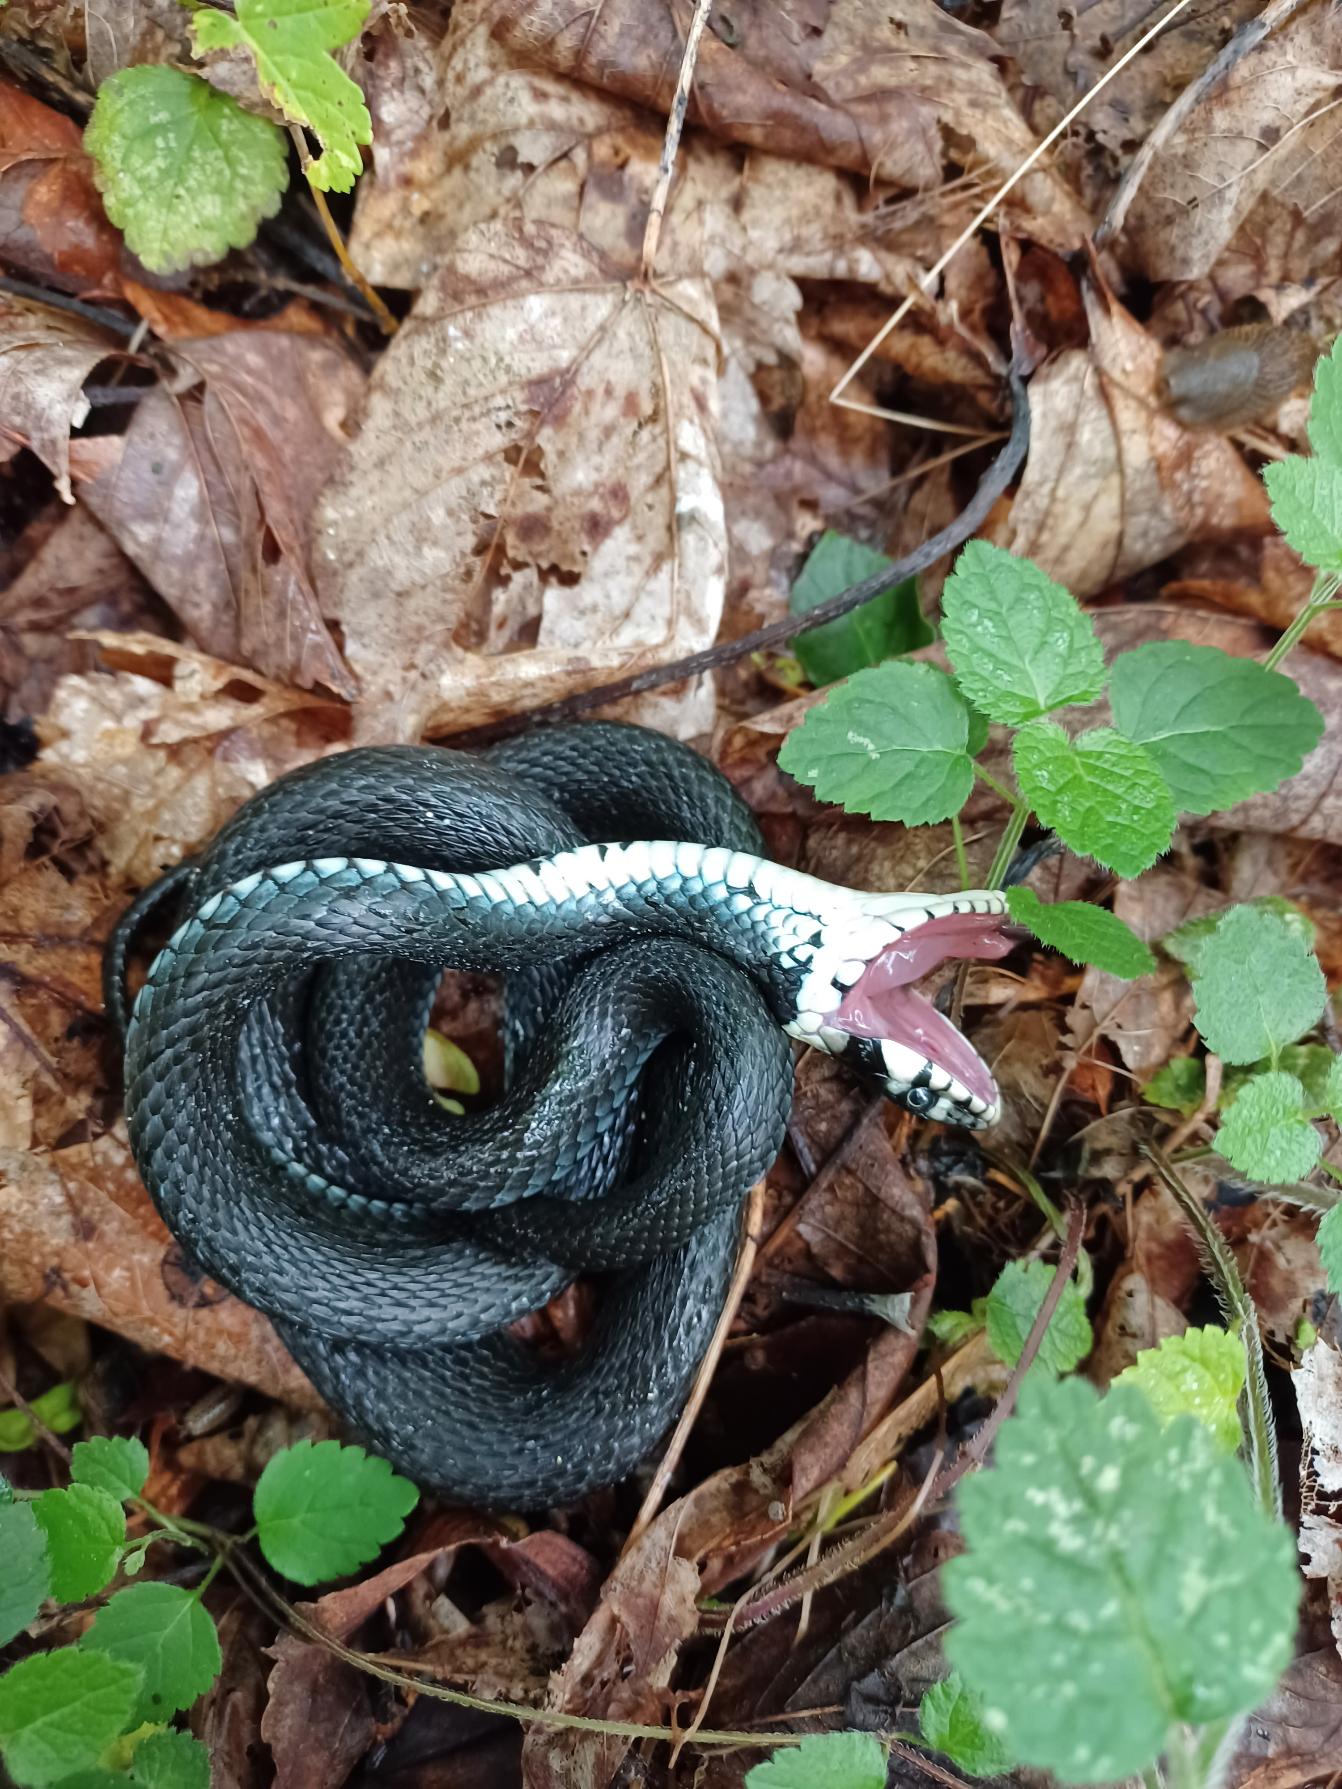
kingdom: Animalia
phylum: Chordata
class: Squamata
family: Colubridae
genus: Natrix
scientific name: Natrix natrix
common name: Snog
